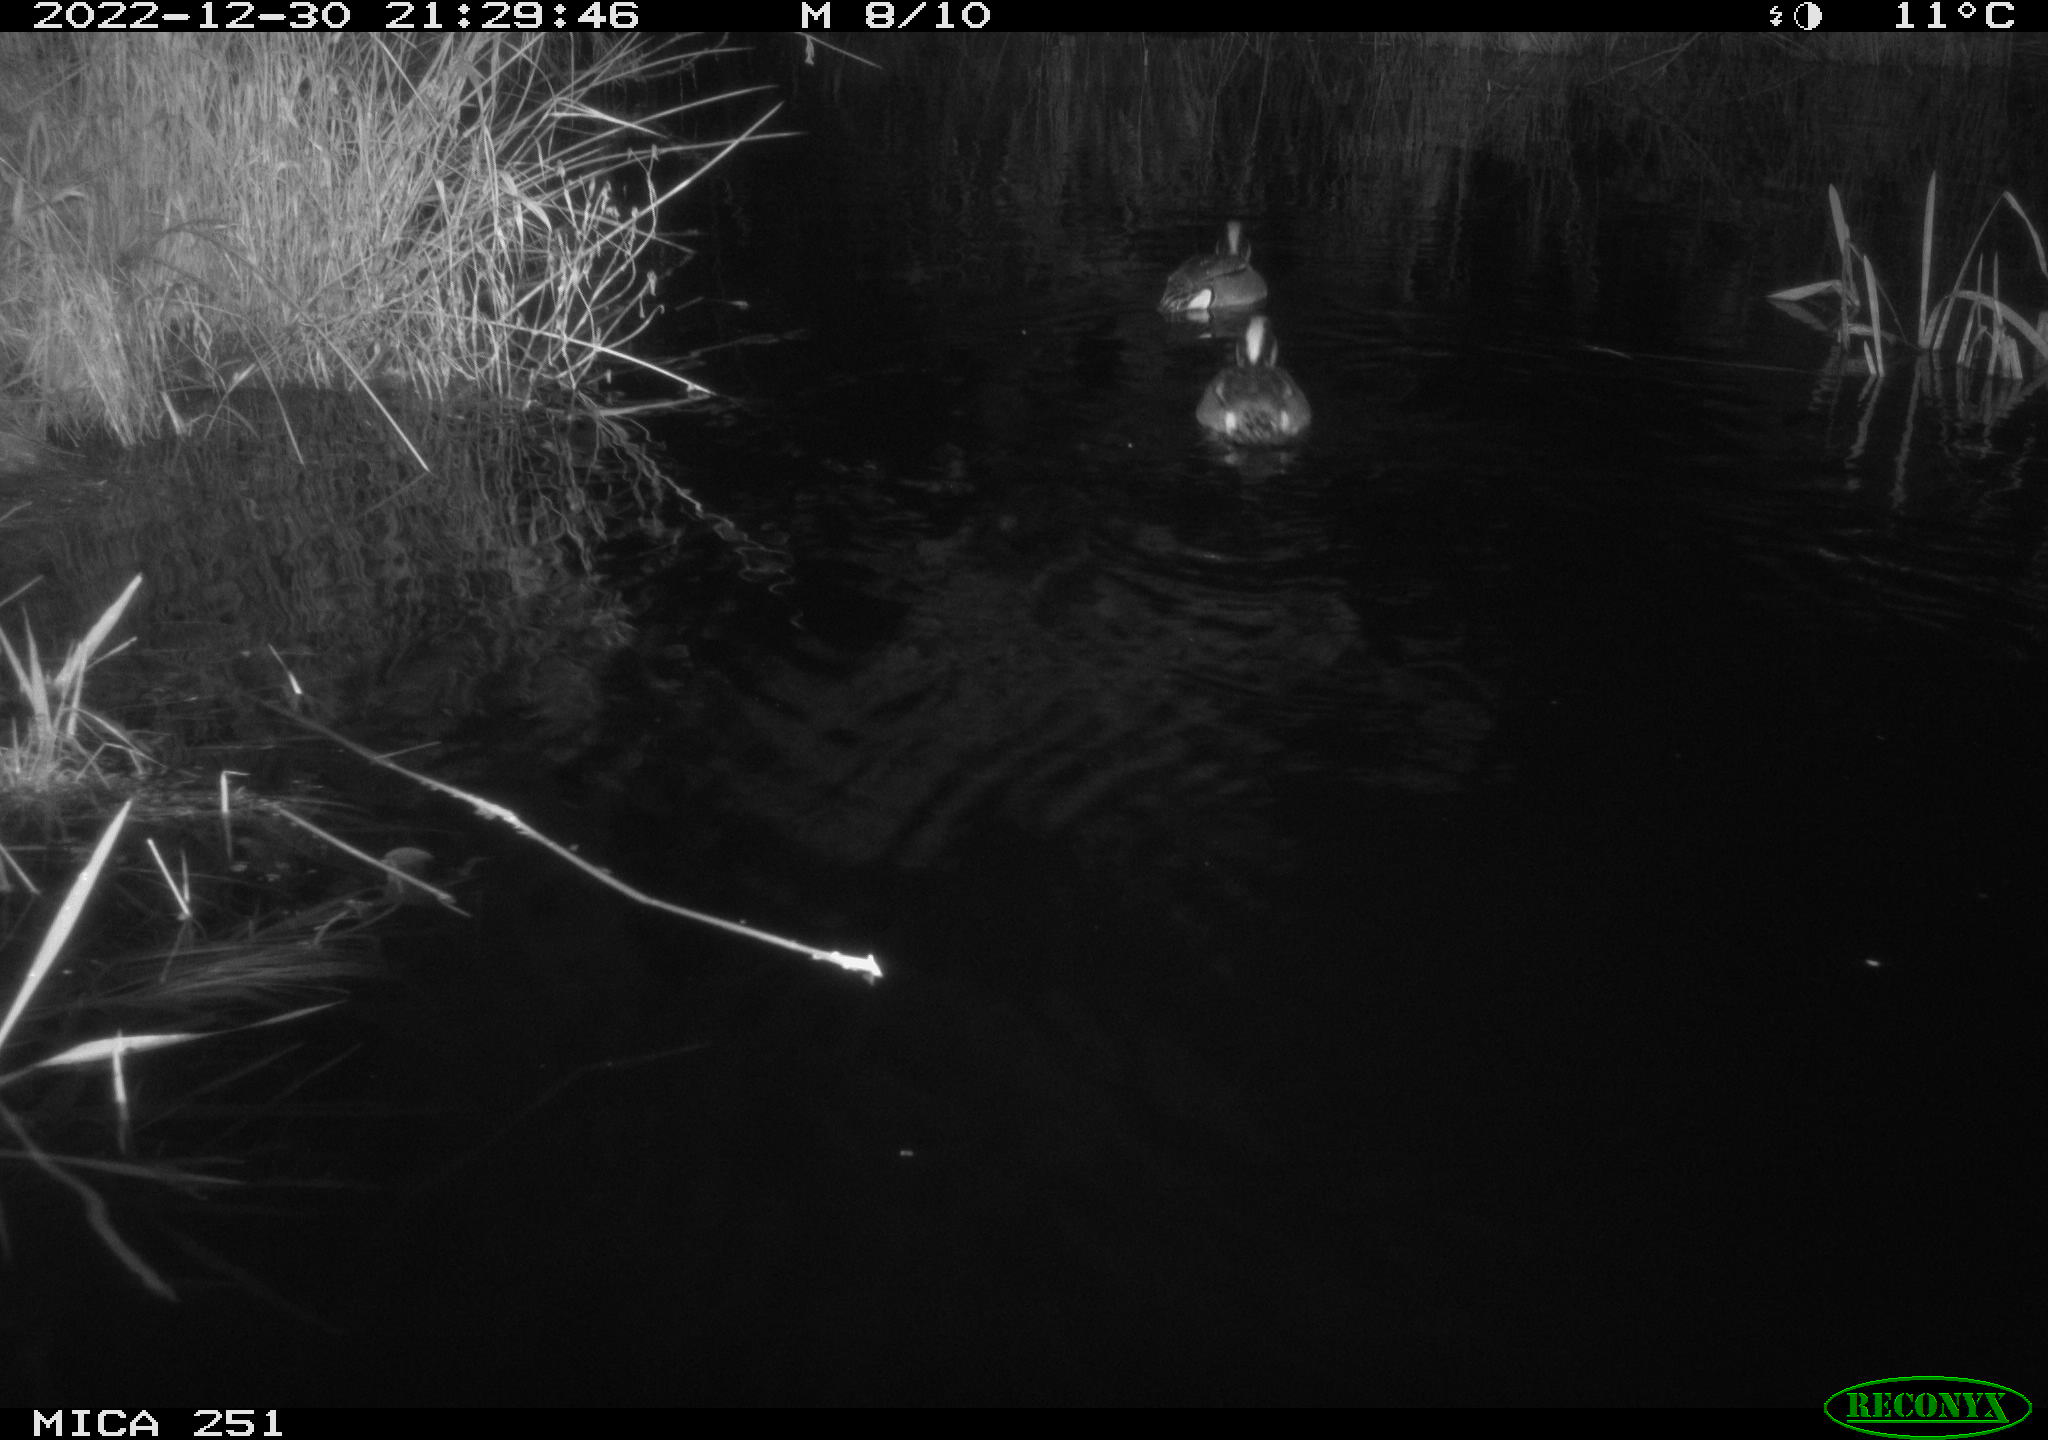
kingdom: Animalia
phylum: Chordata
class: Aves
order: Anseriformes
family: Anatidae
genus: Anas
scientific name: Anas
